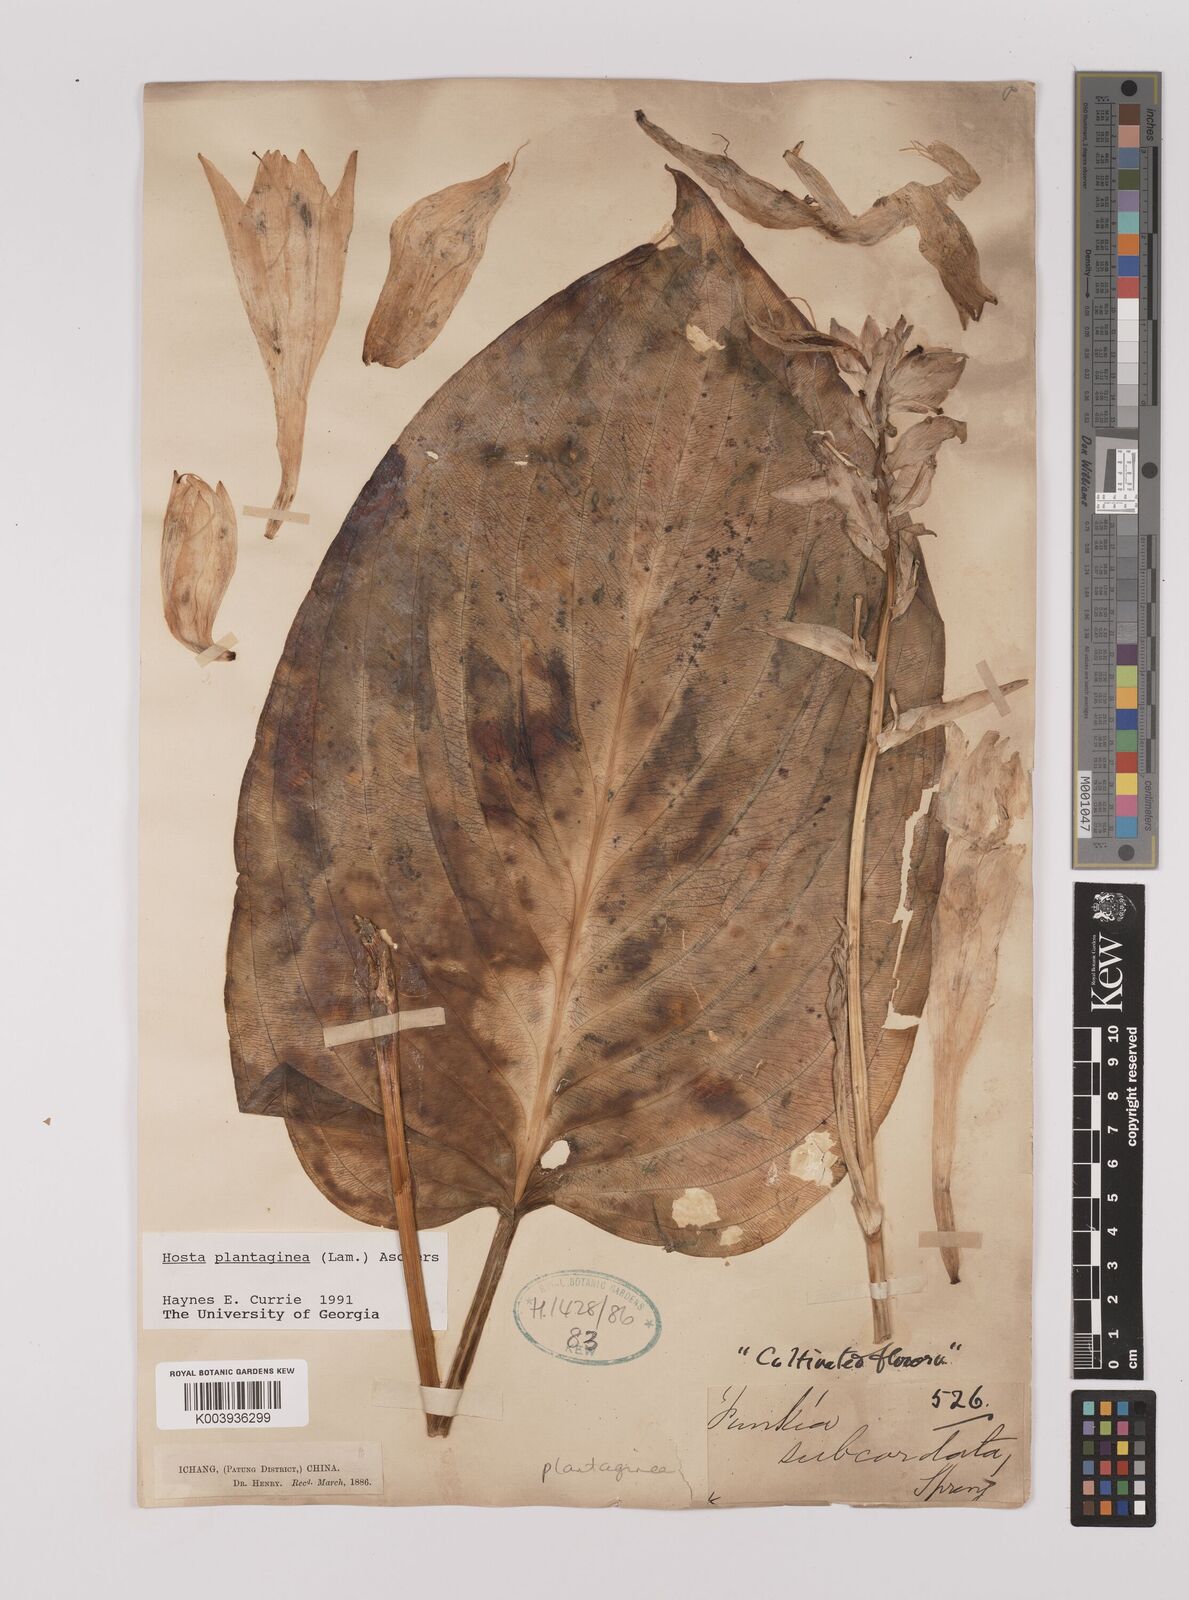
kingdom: Plantae
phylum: Tracheophyta
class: Liliopsida
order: Asparagales
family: Asparagaceae
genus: Hosta
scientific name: Hosta plantaginea
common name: August-lily
